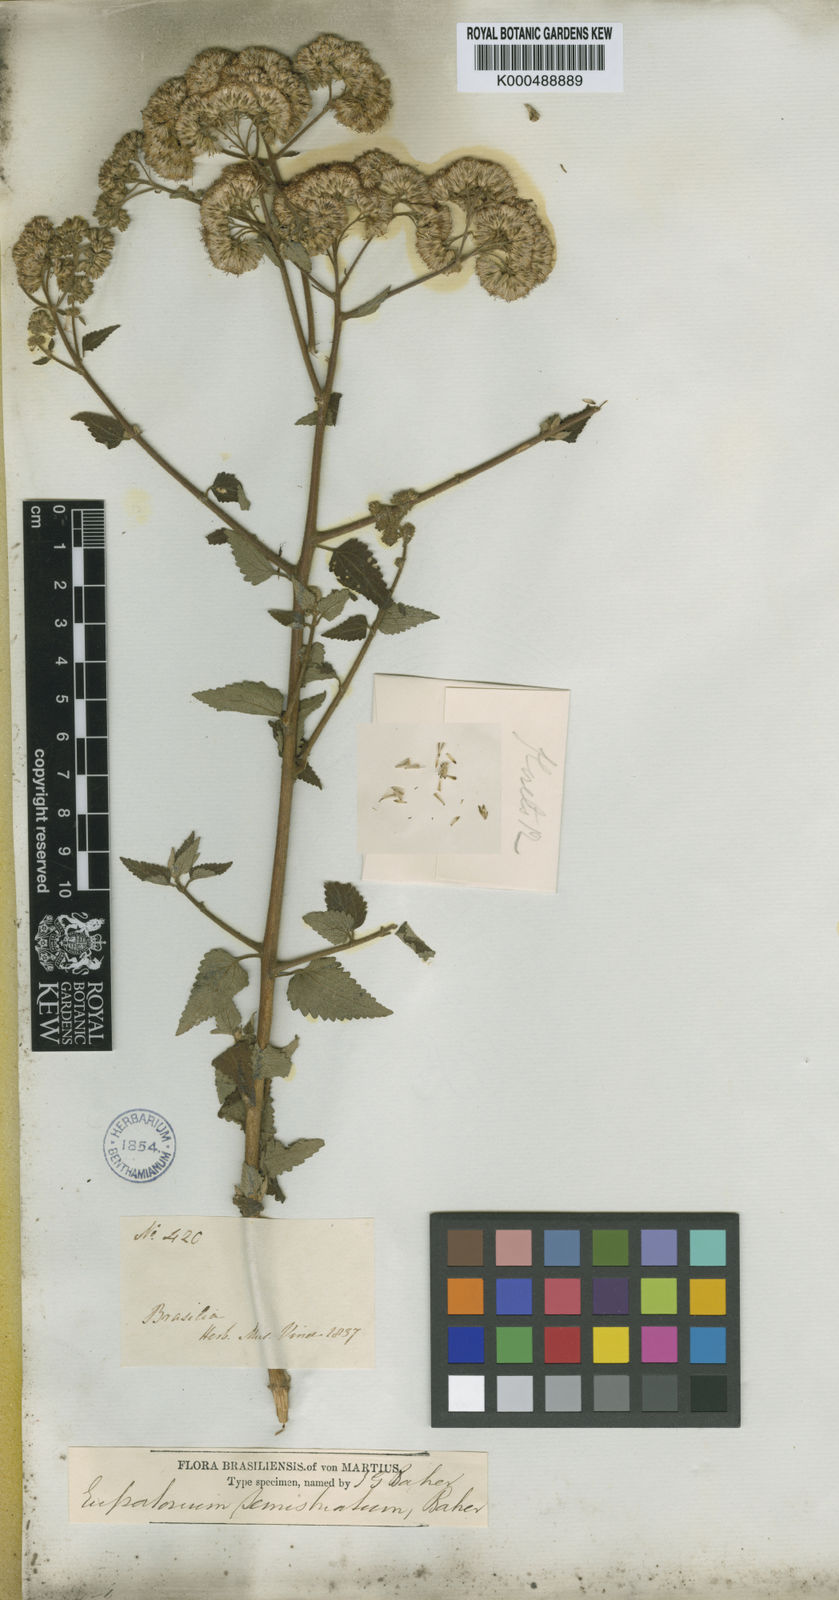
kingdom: Plantae
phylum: Tracheophyta
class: Magnoliopsida
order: Asterales
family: Asteraceae
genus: Bejaranoa
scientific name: Bejaranoa semistriata
